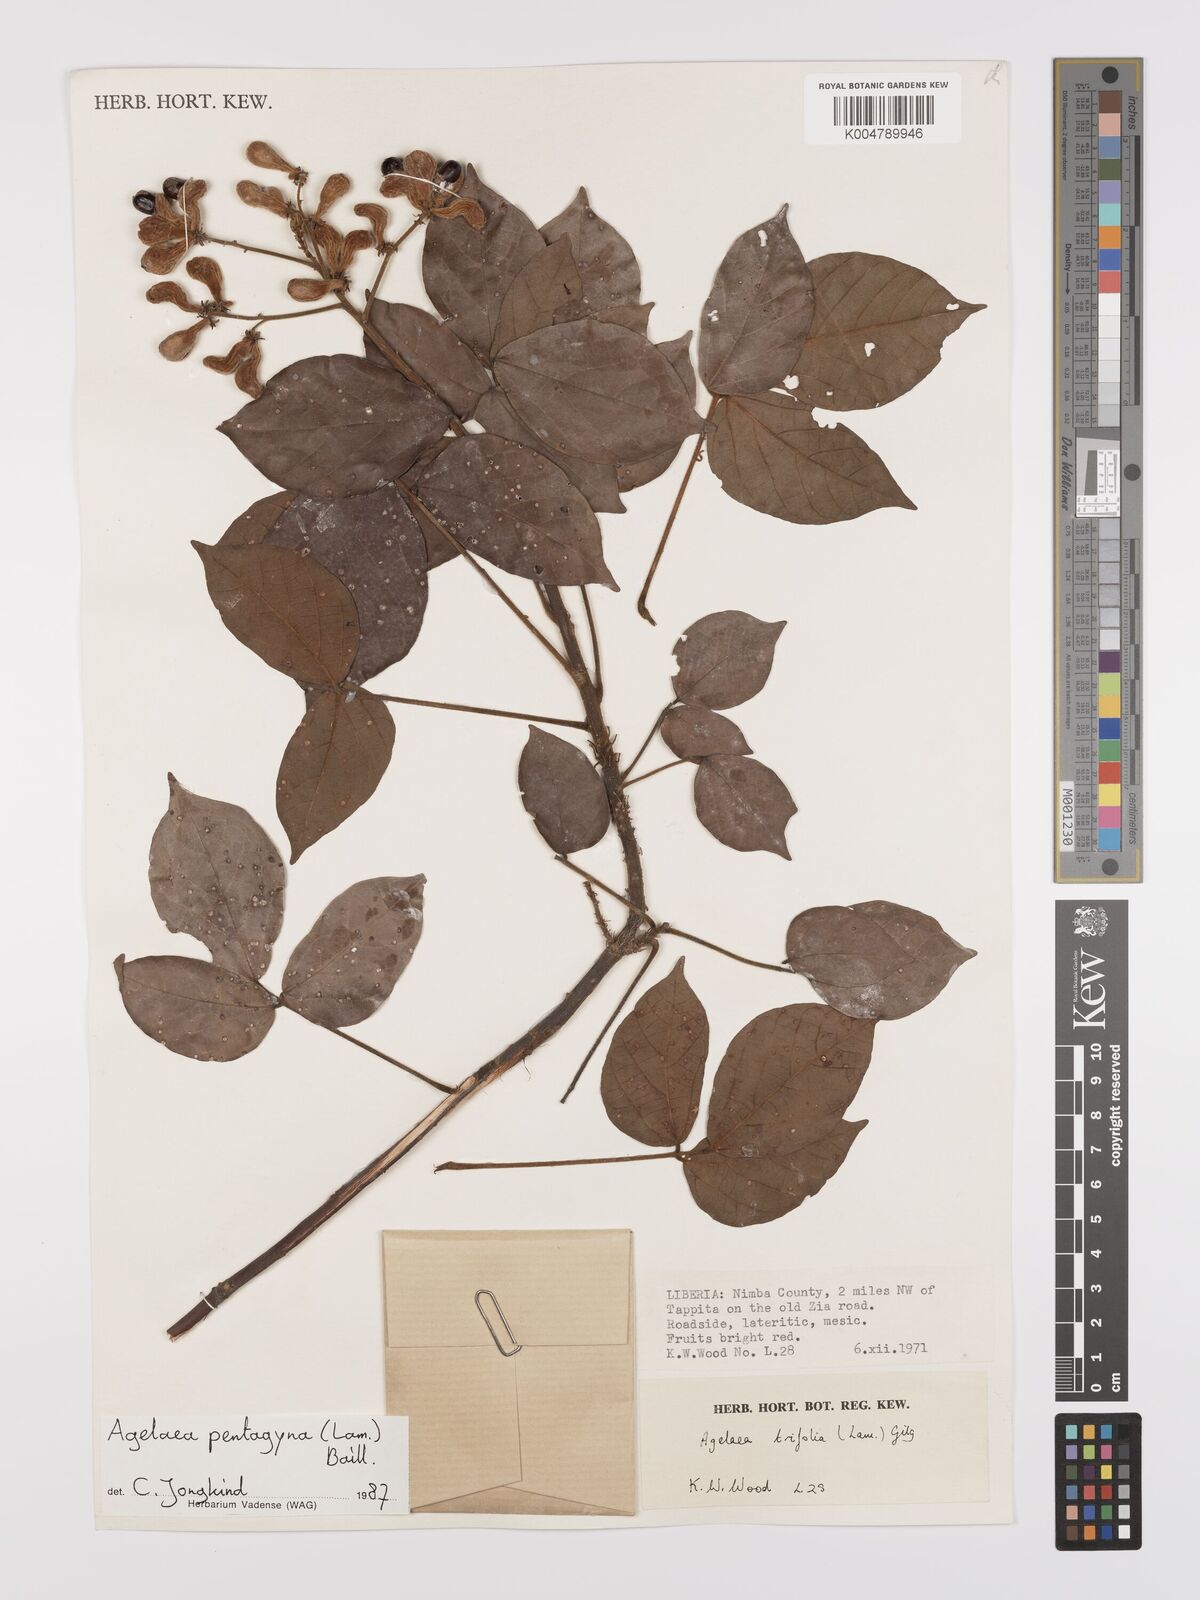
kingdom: Plantae
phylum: Tracheophyta
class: Magnoliopsida
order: Oxalidales
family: Connaraceae
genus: Agelaea
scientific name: Agelaea pentagyna
